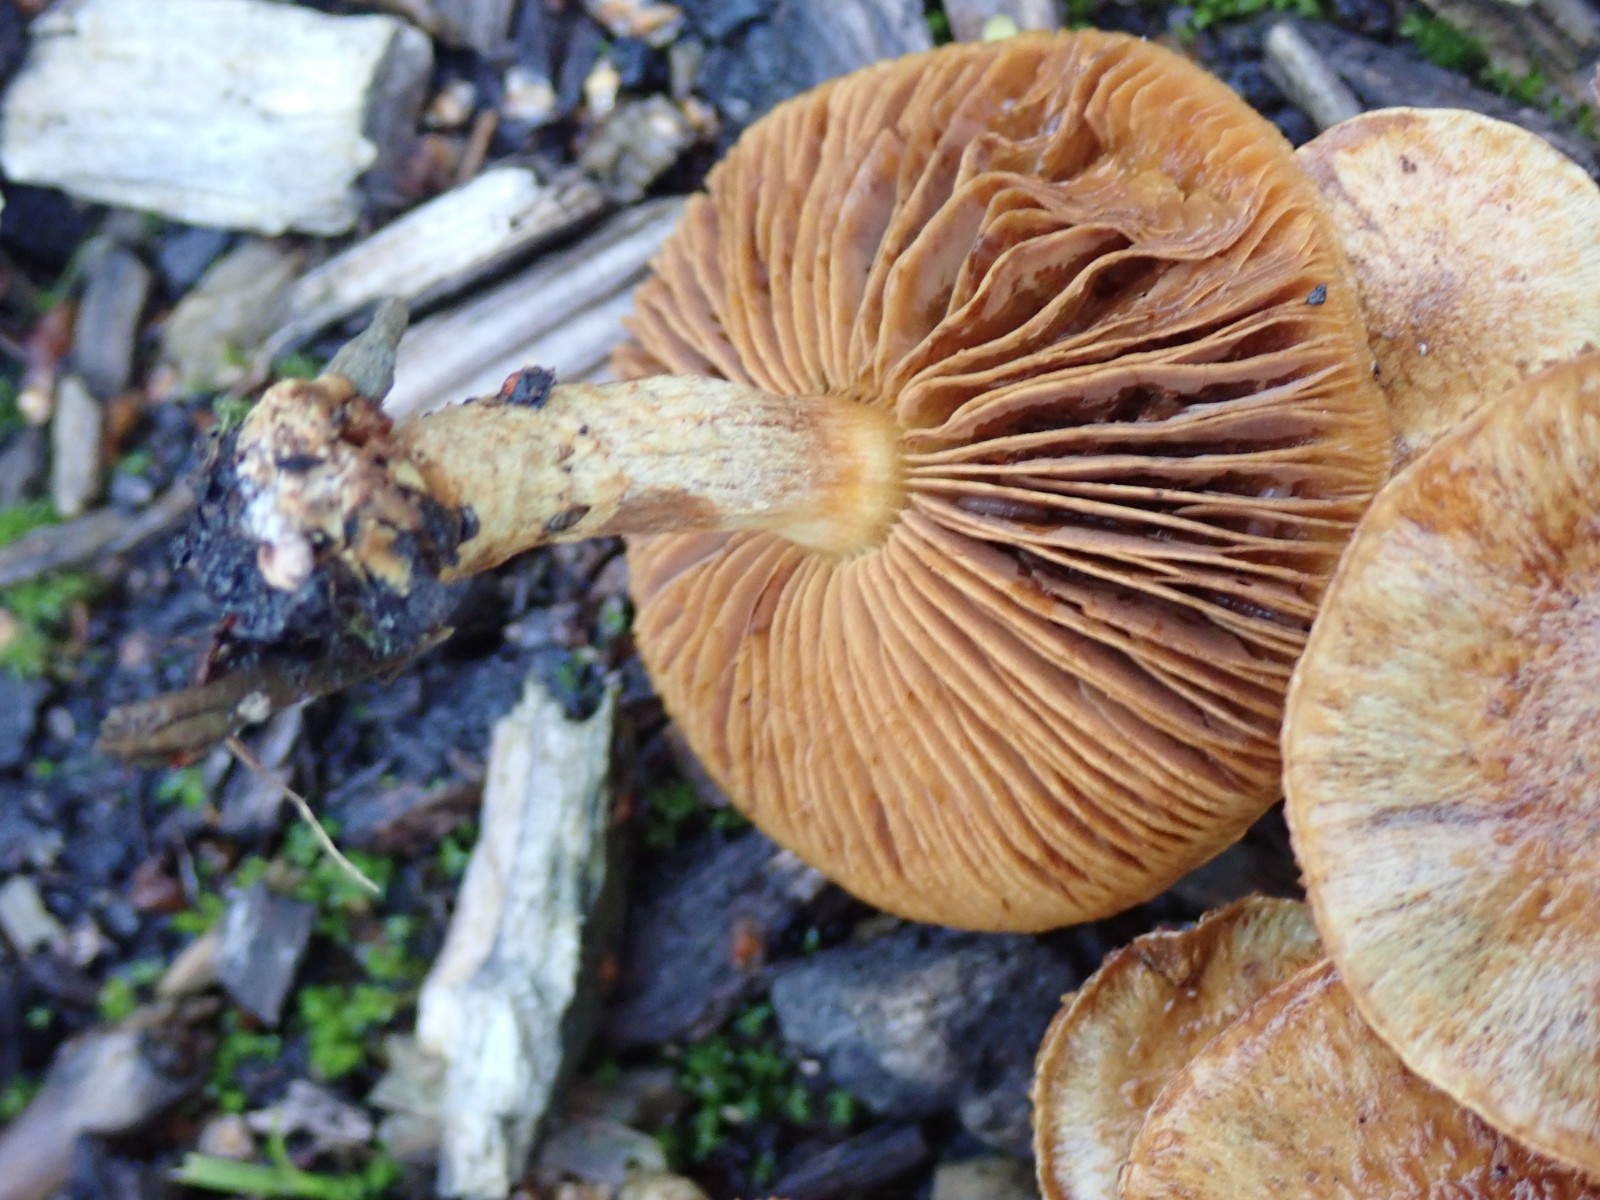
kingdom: Fungi
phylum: Basidiomycota
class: Agaricomycetes
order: Agaricales
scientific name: Agaricales
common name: champignonordenen
